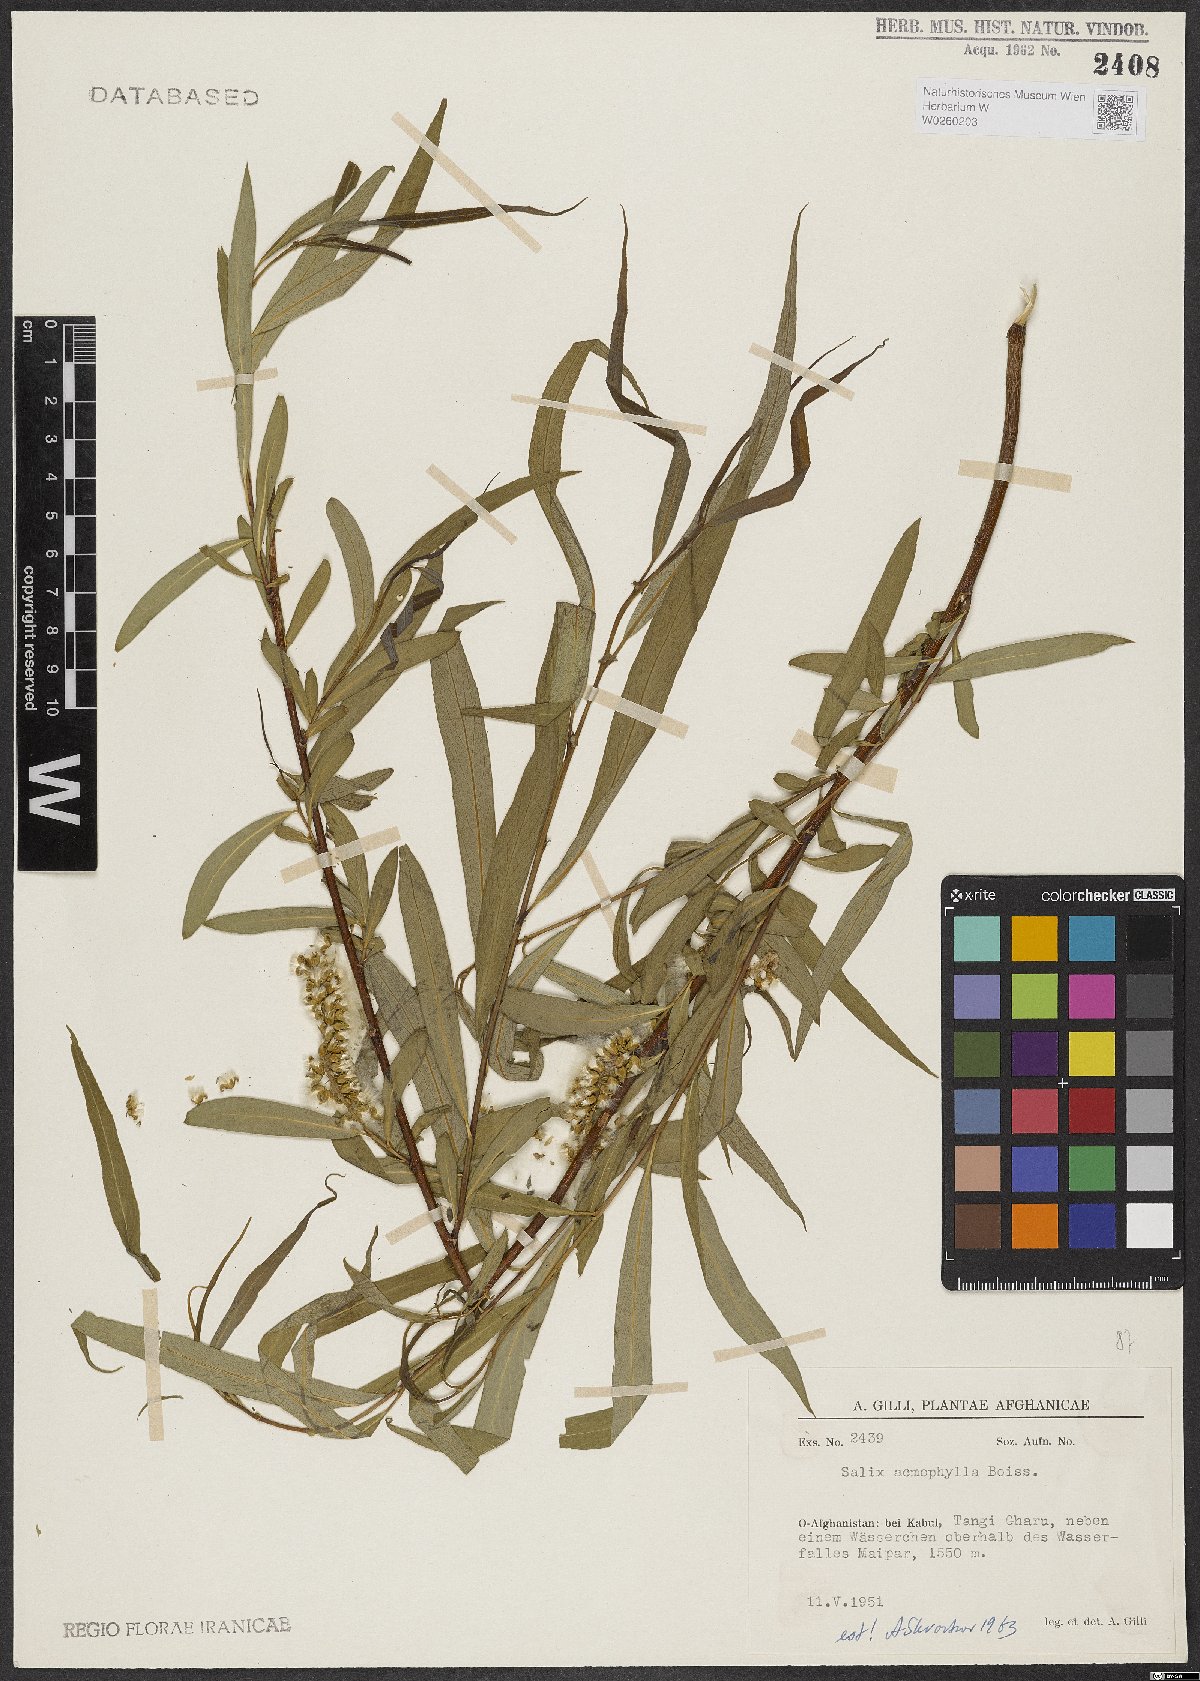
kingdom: Plantae
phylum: Tracheophyta
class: Magnoliopsida
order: Malpighiales
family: Salicaceae
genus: Salix
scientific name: Salix acmophylla
